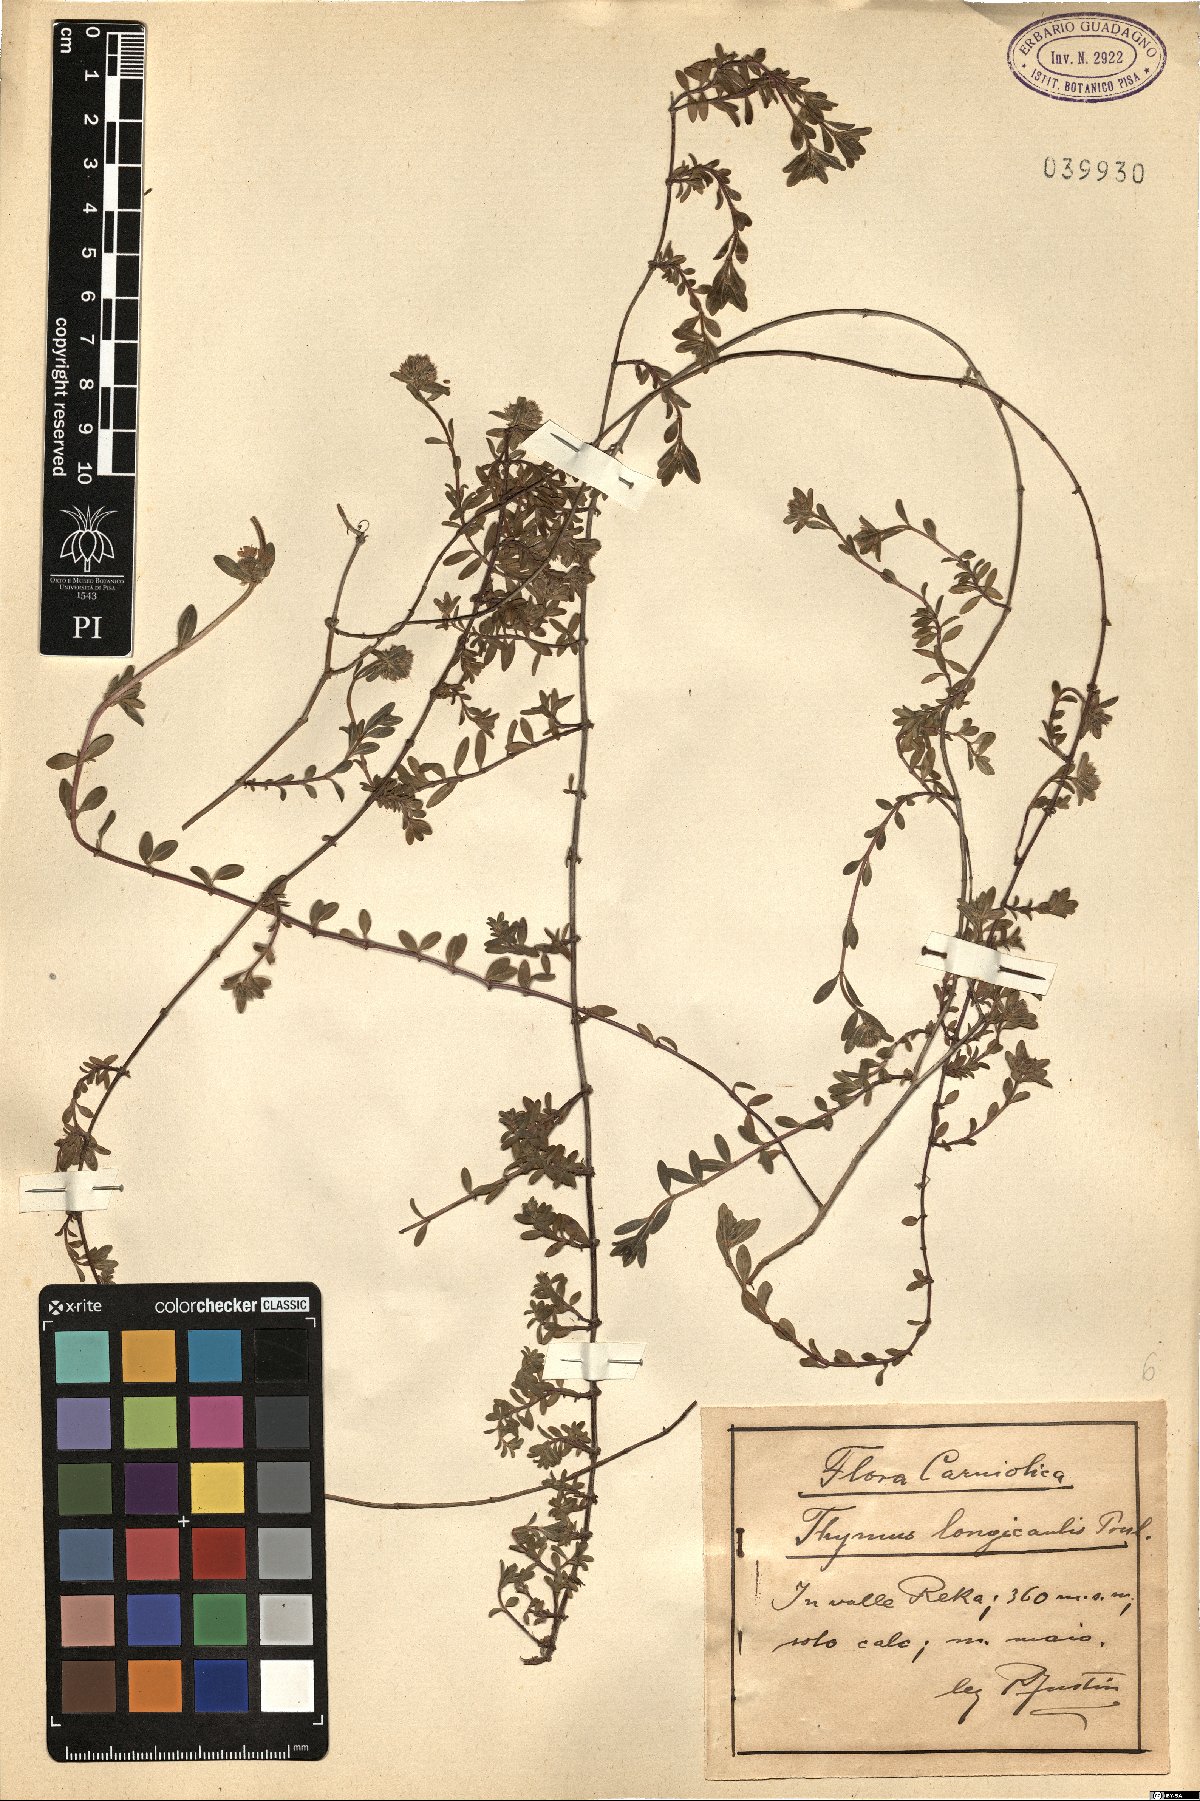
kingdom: Plantae
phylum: Tracheophyta
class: Magnoliopsida
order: Lamiales
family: Lamiaceae
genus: Thymus
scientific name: Thymus longicaulis
